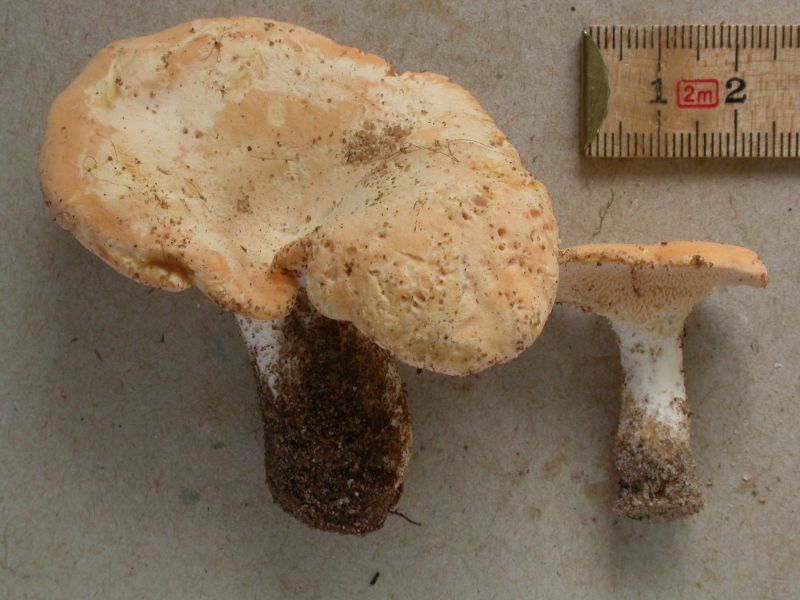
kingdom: Fungi
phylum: Basidiomycota
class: Agaricomycetes
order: Cantharellales
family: Hydnaceae
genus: Hydnum
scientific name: Hydnum repandum
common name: almindelig pigsvamp
